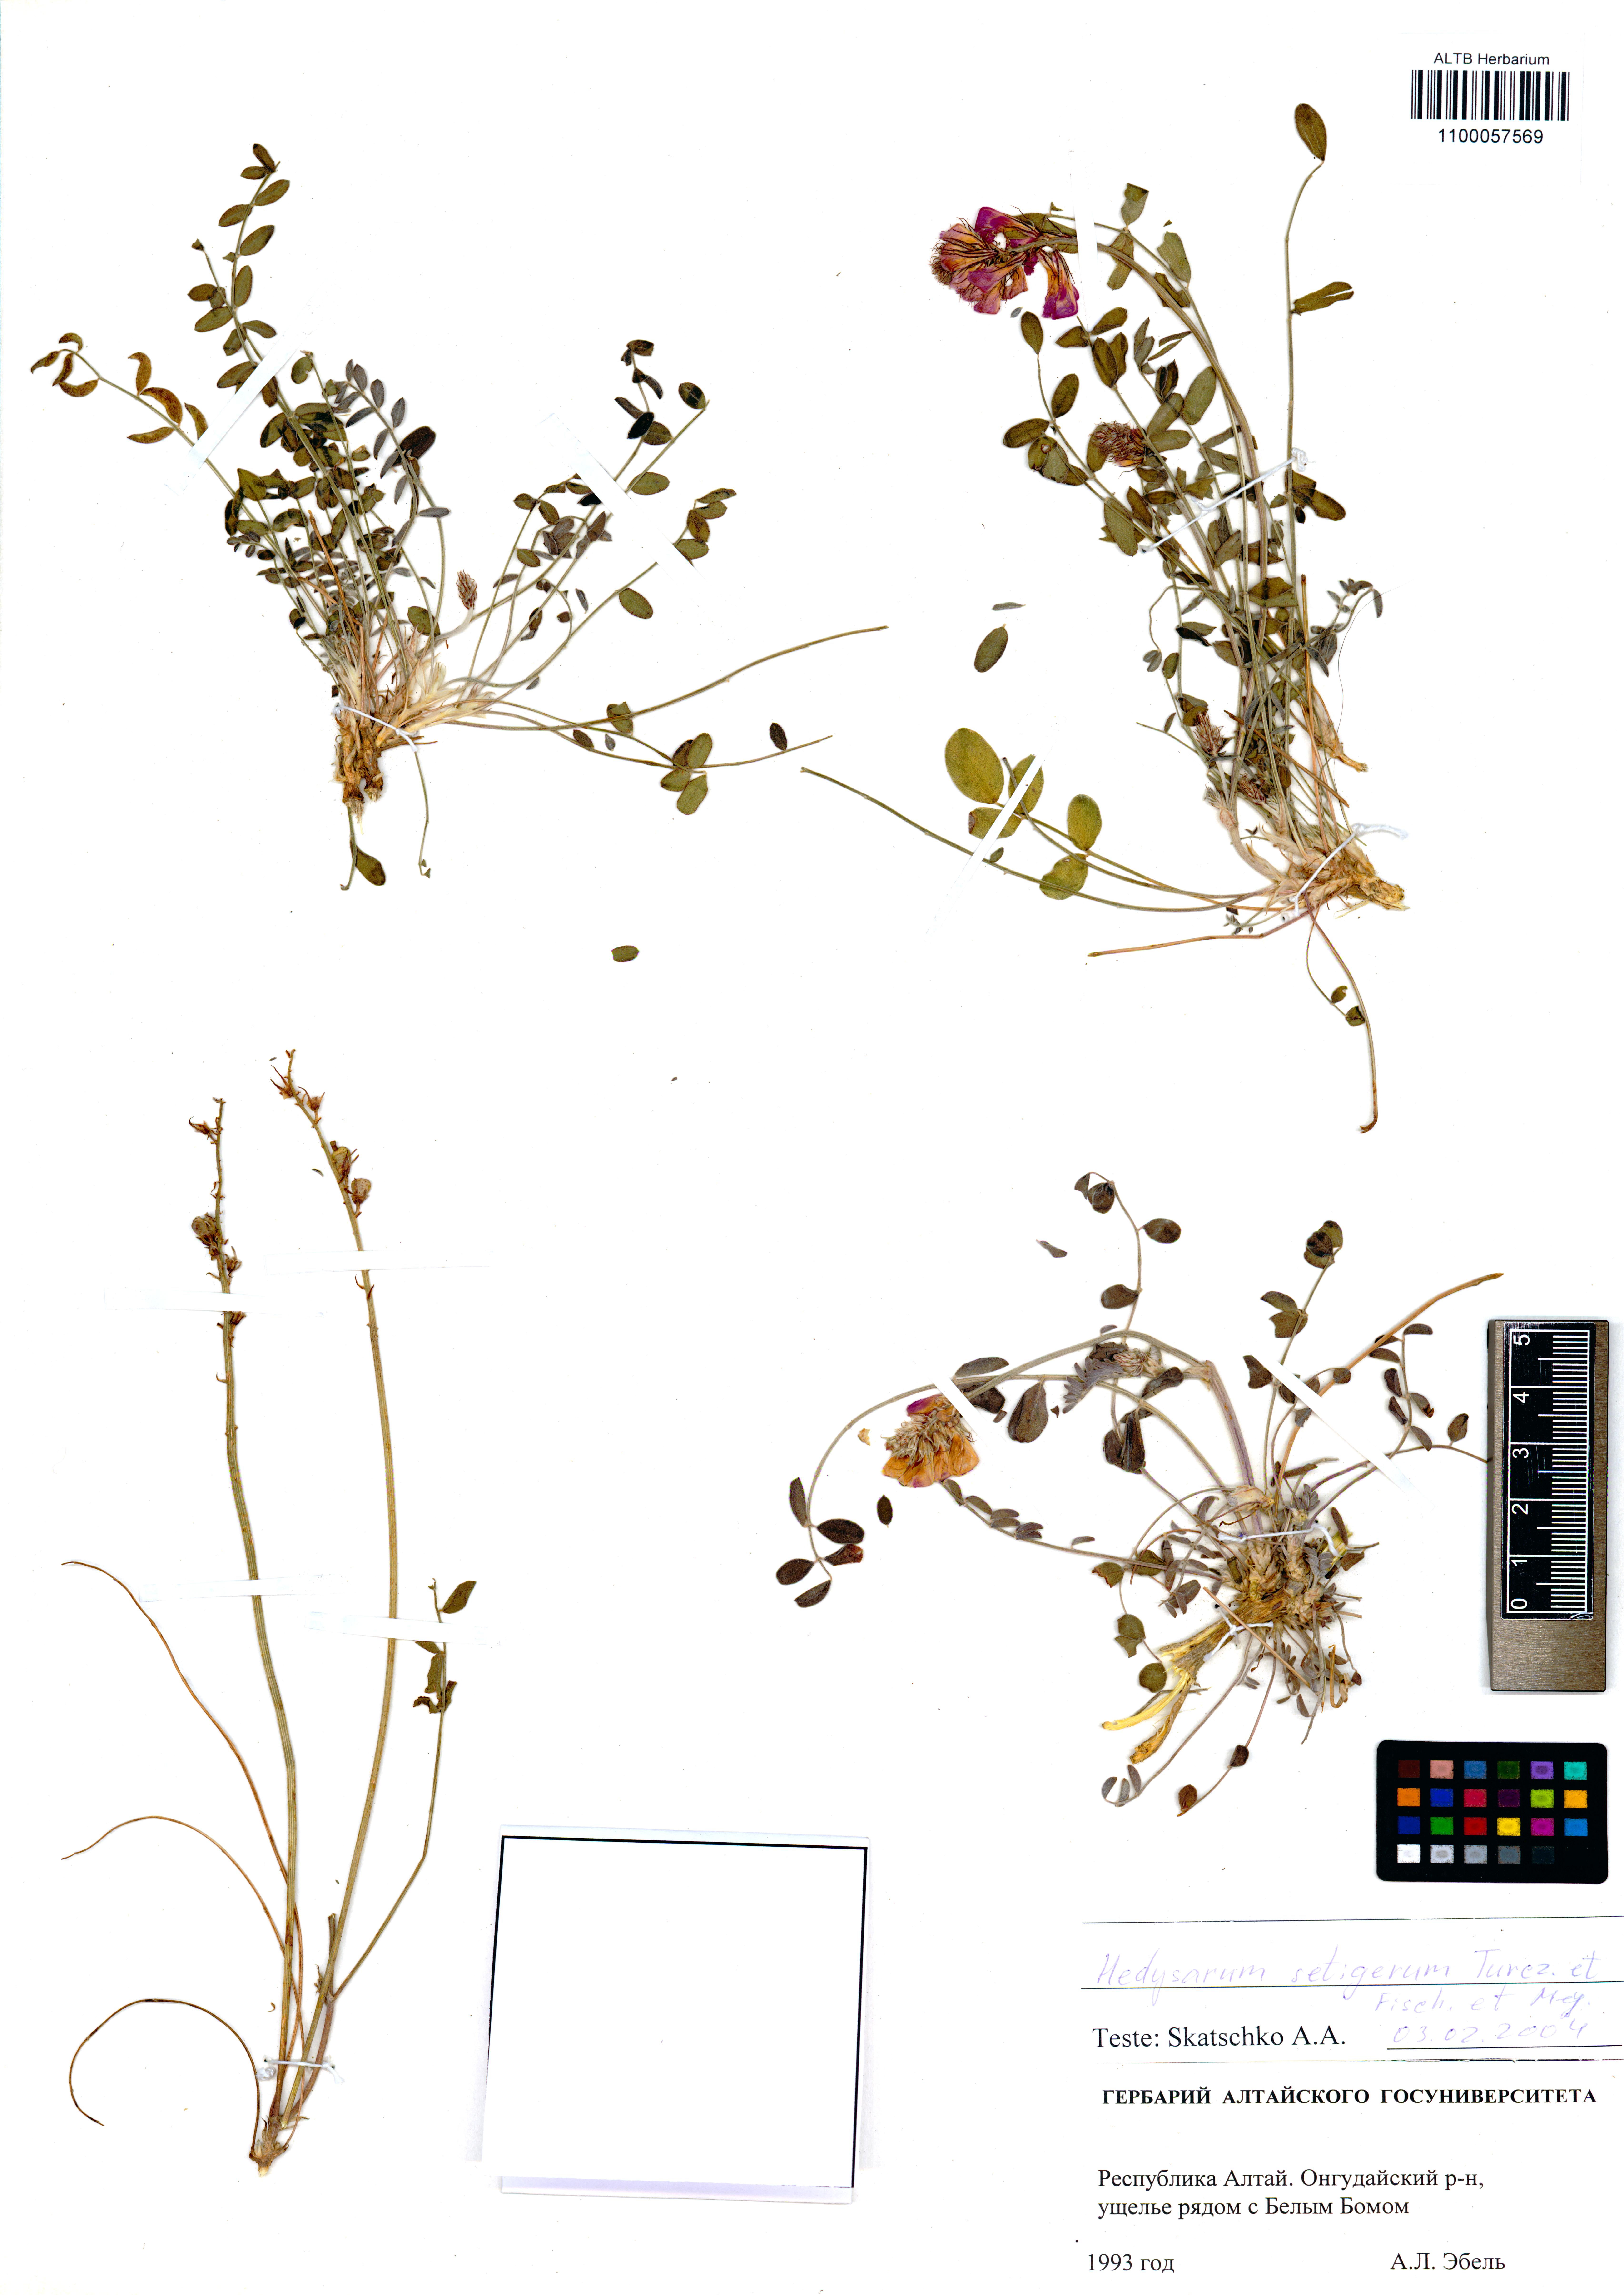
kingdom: Plantae
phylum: Tracheophyta
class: Magnoliopsida
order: Fabales
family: Fabaceae
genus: Hedysarum
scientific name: Hedysarum setigerum
